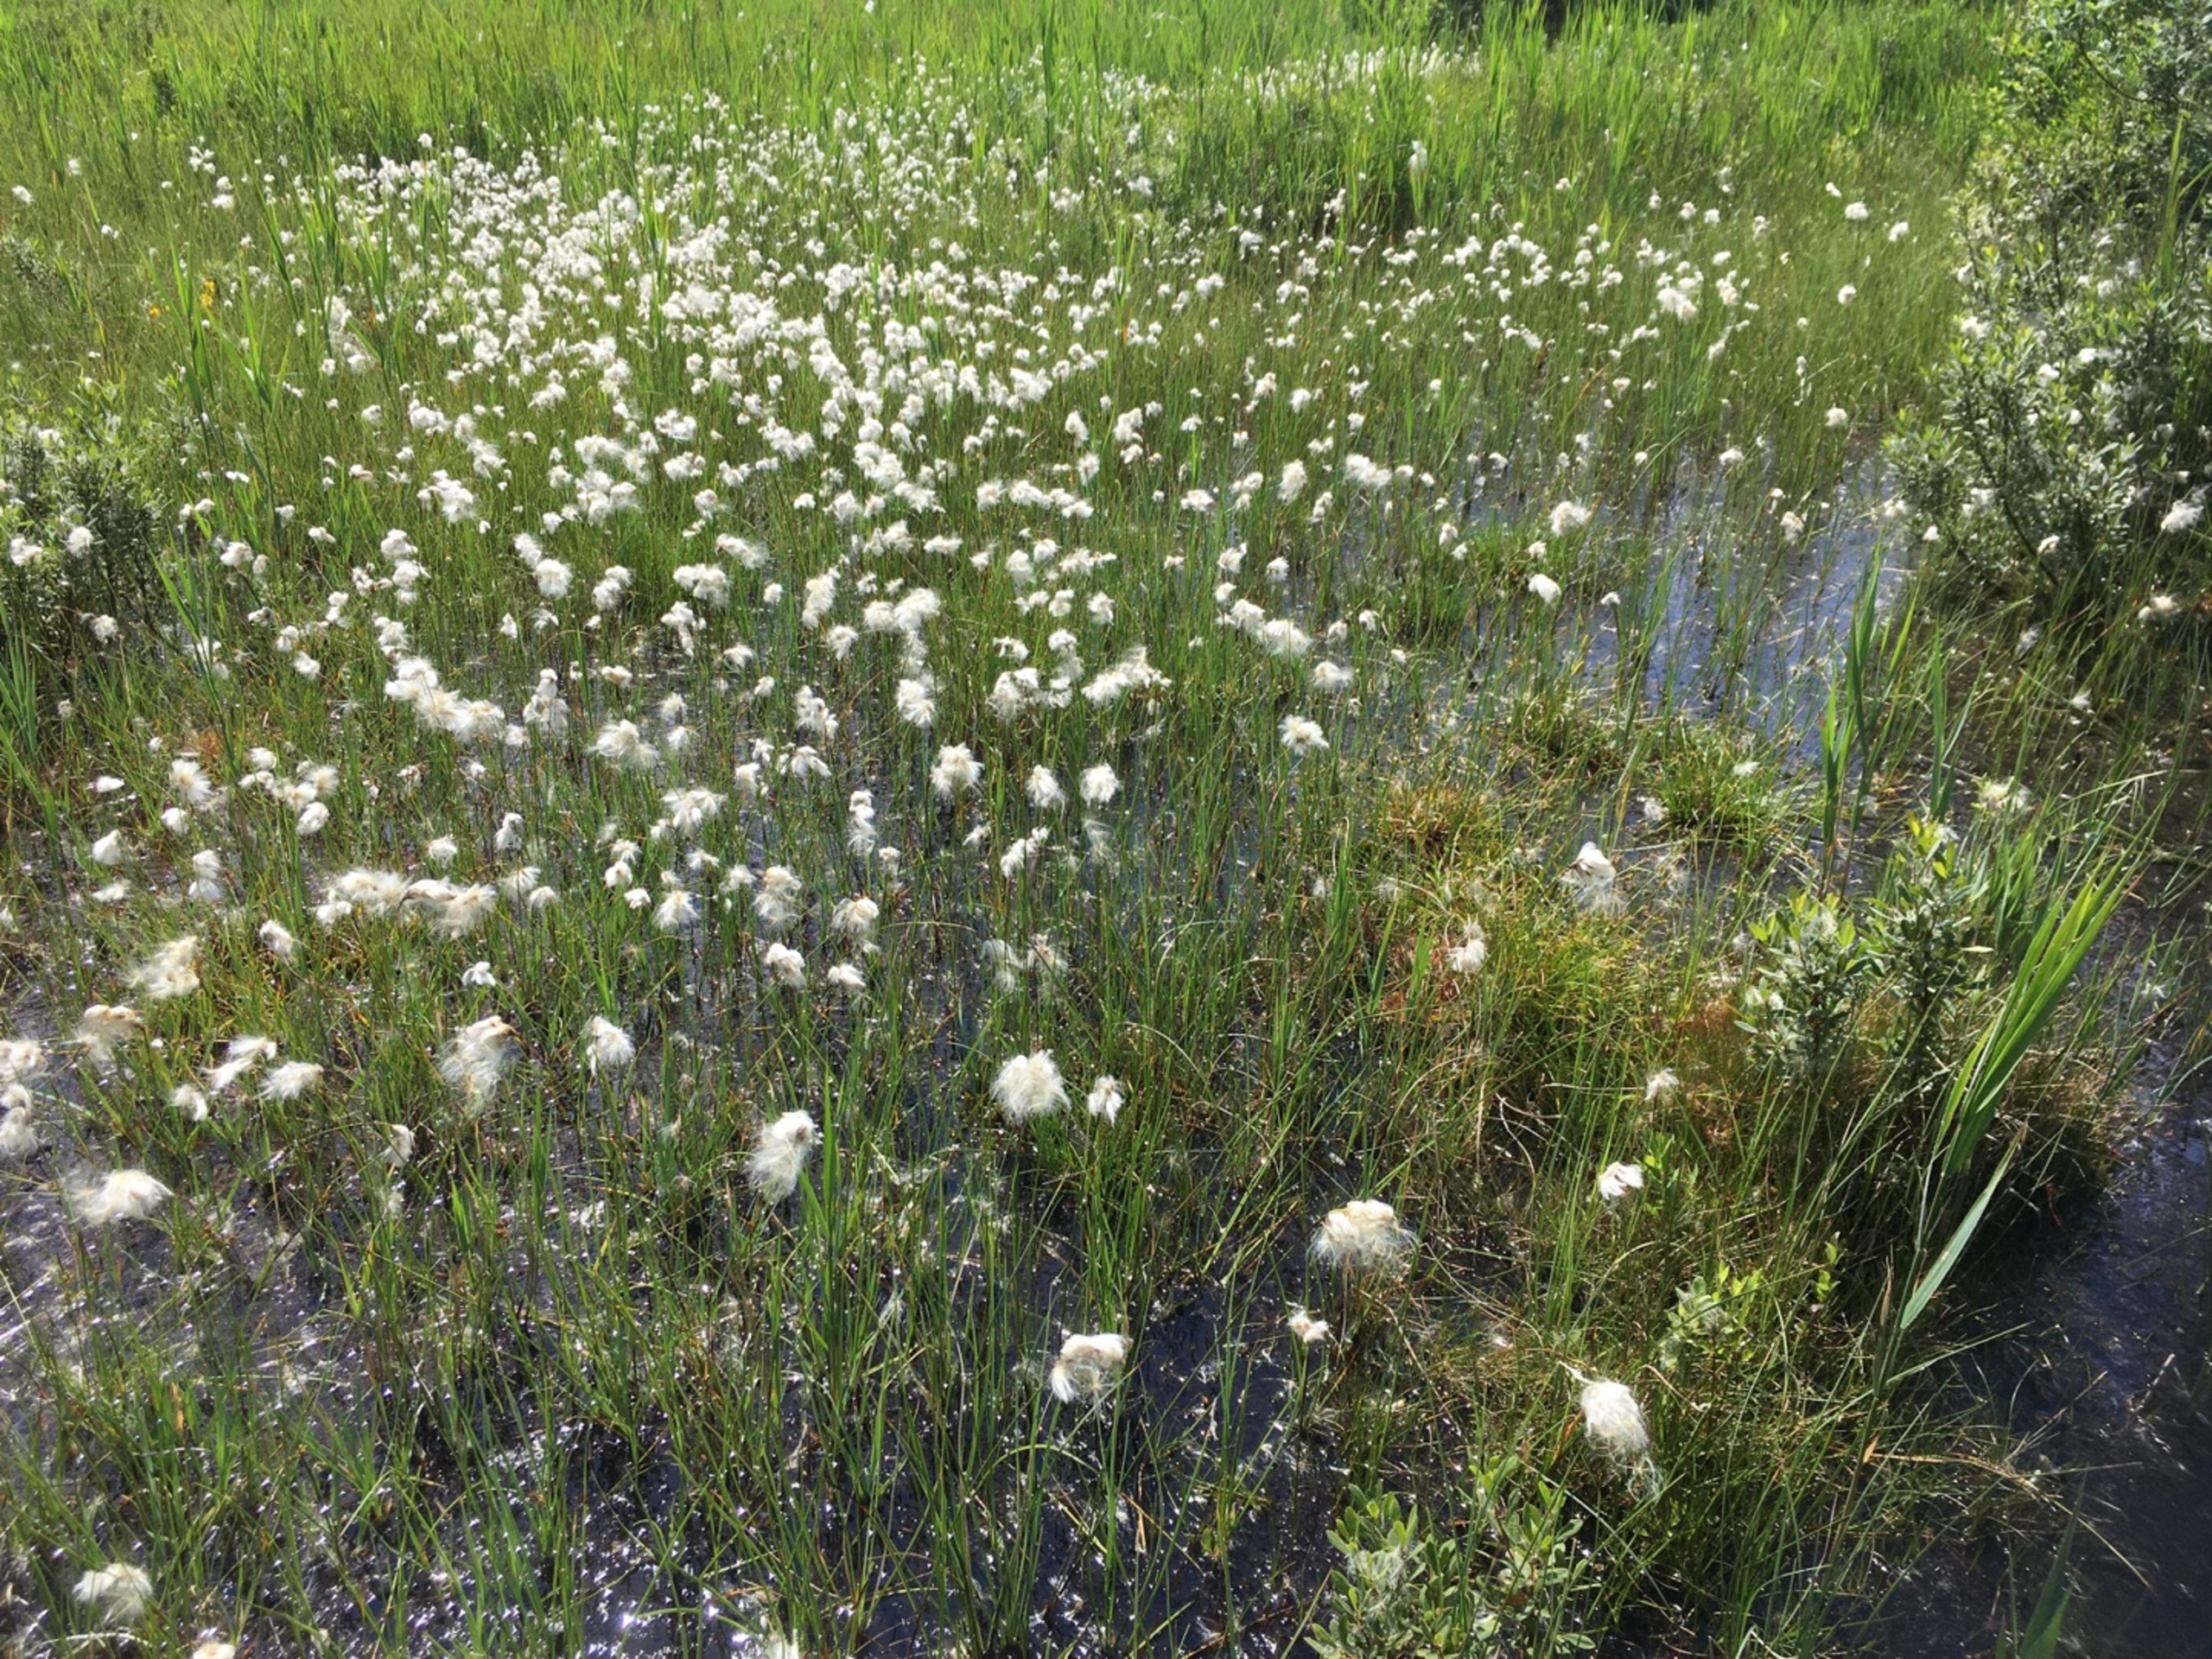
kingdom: Plantae
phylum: Tracheophyta
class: Liliopsida
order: Poales
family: Cyperaceae
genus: Eriophorum
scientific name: Eriophorum gracile
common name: Fin kæruld
